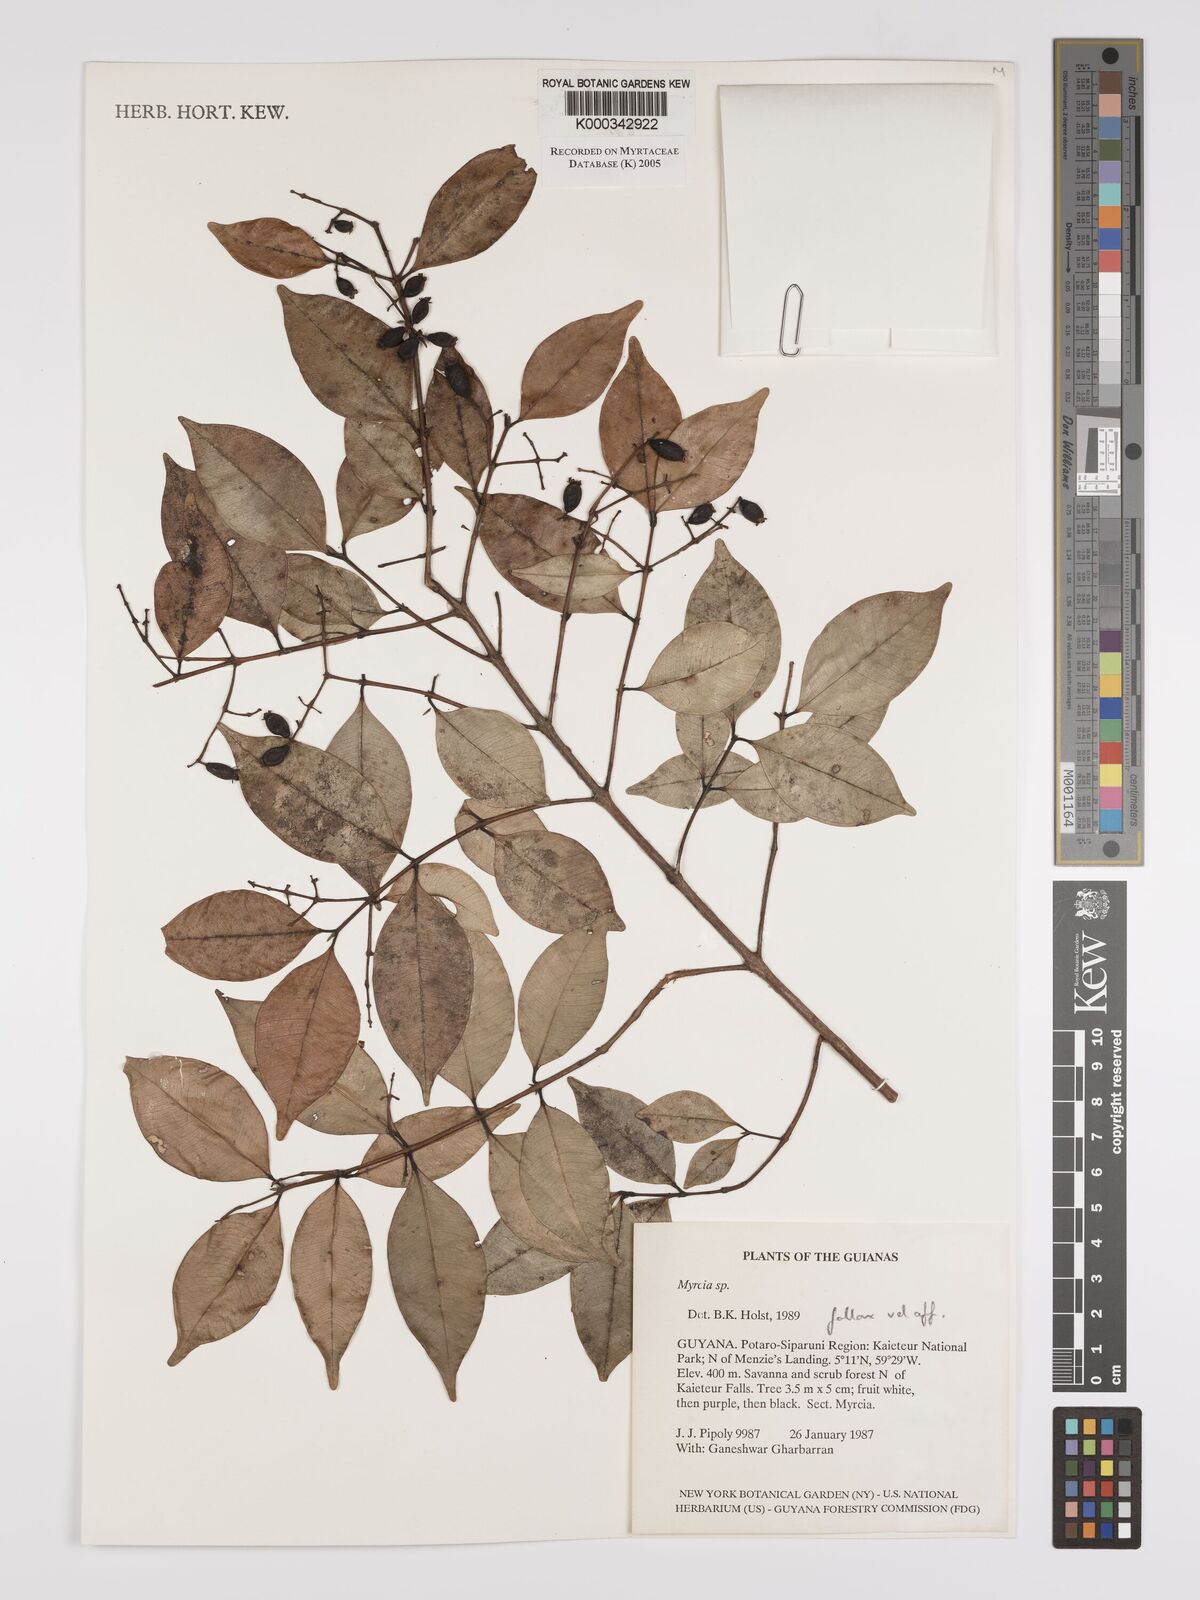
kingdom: Plantae
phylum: Tracheophyta
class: Magnoliopsida
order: Myrtales
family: Myrtaceae
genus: Myrcia
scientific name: Myrcia splendens
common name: Surinam cherry
